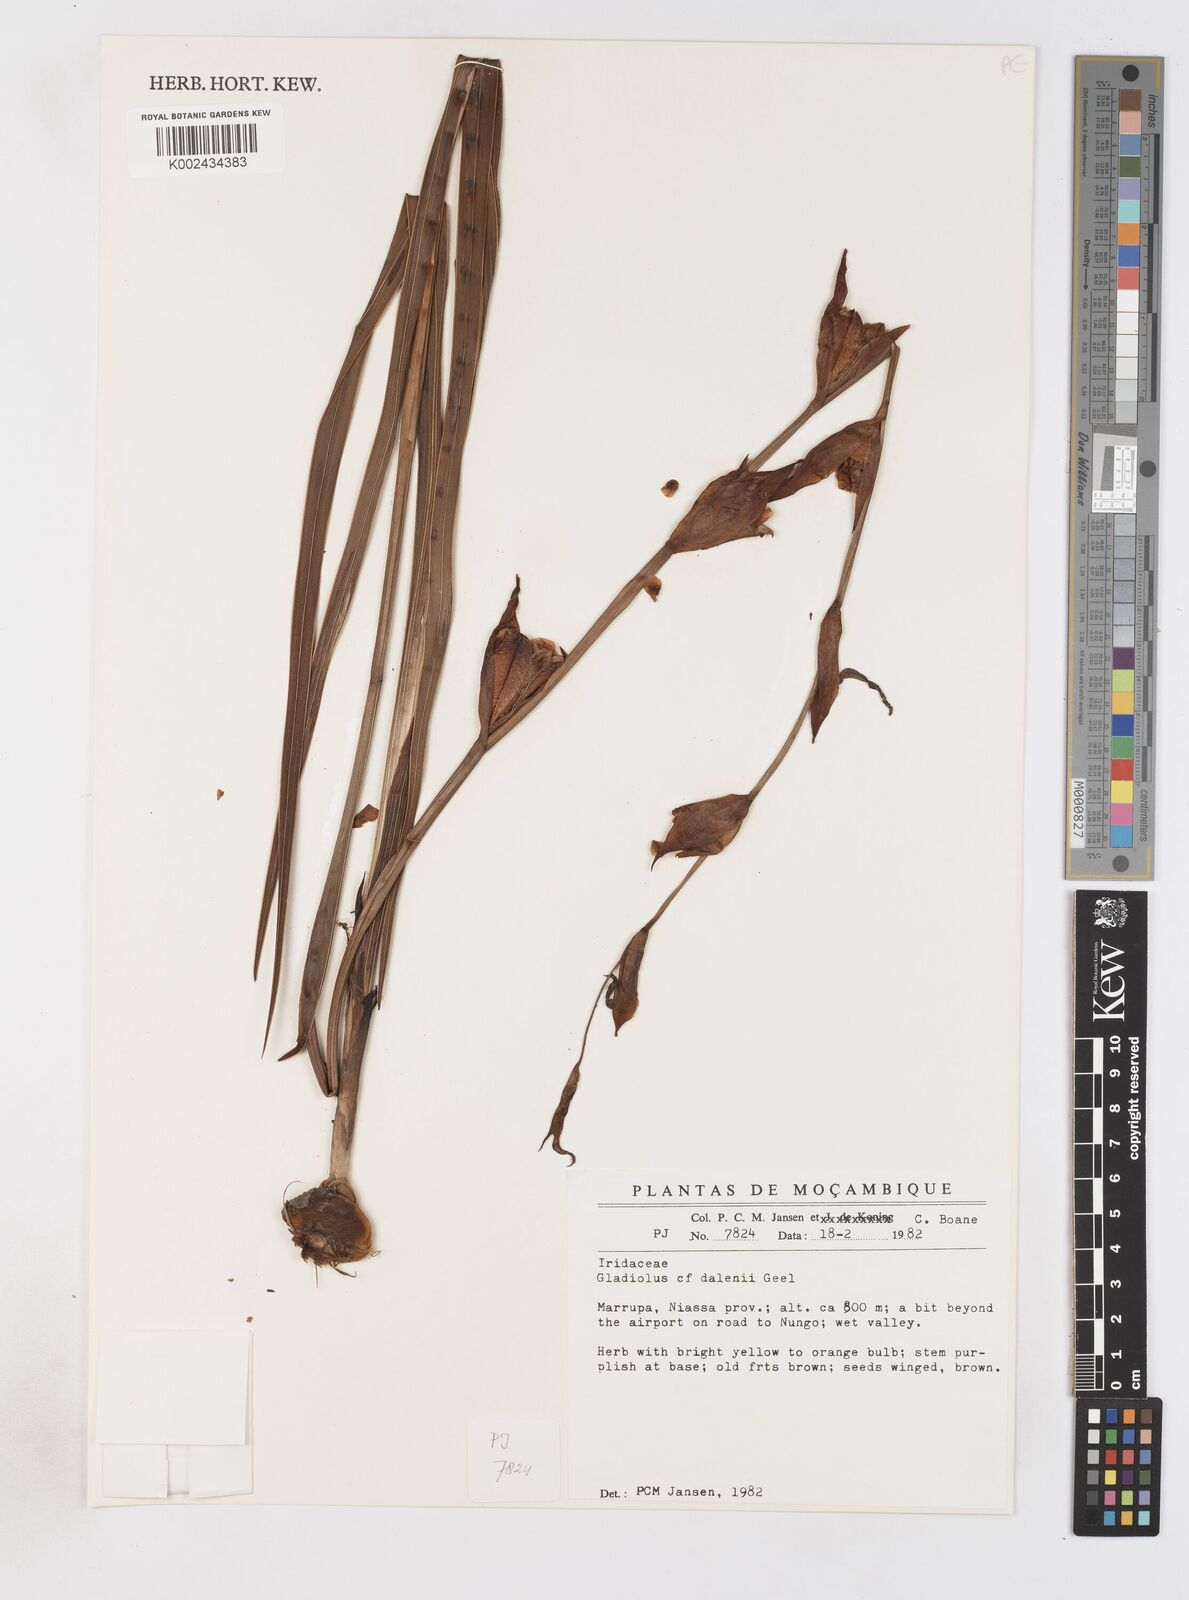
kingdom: Plantae
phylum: Tracheophyta
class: Liliopsida
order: Asparagales
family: Iridaceae
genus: Gladiolus
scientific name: Gladiolus dalenii
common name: Cornflag
